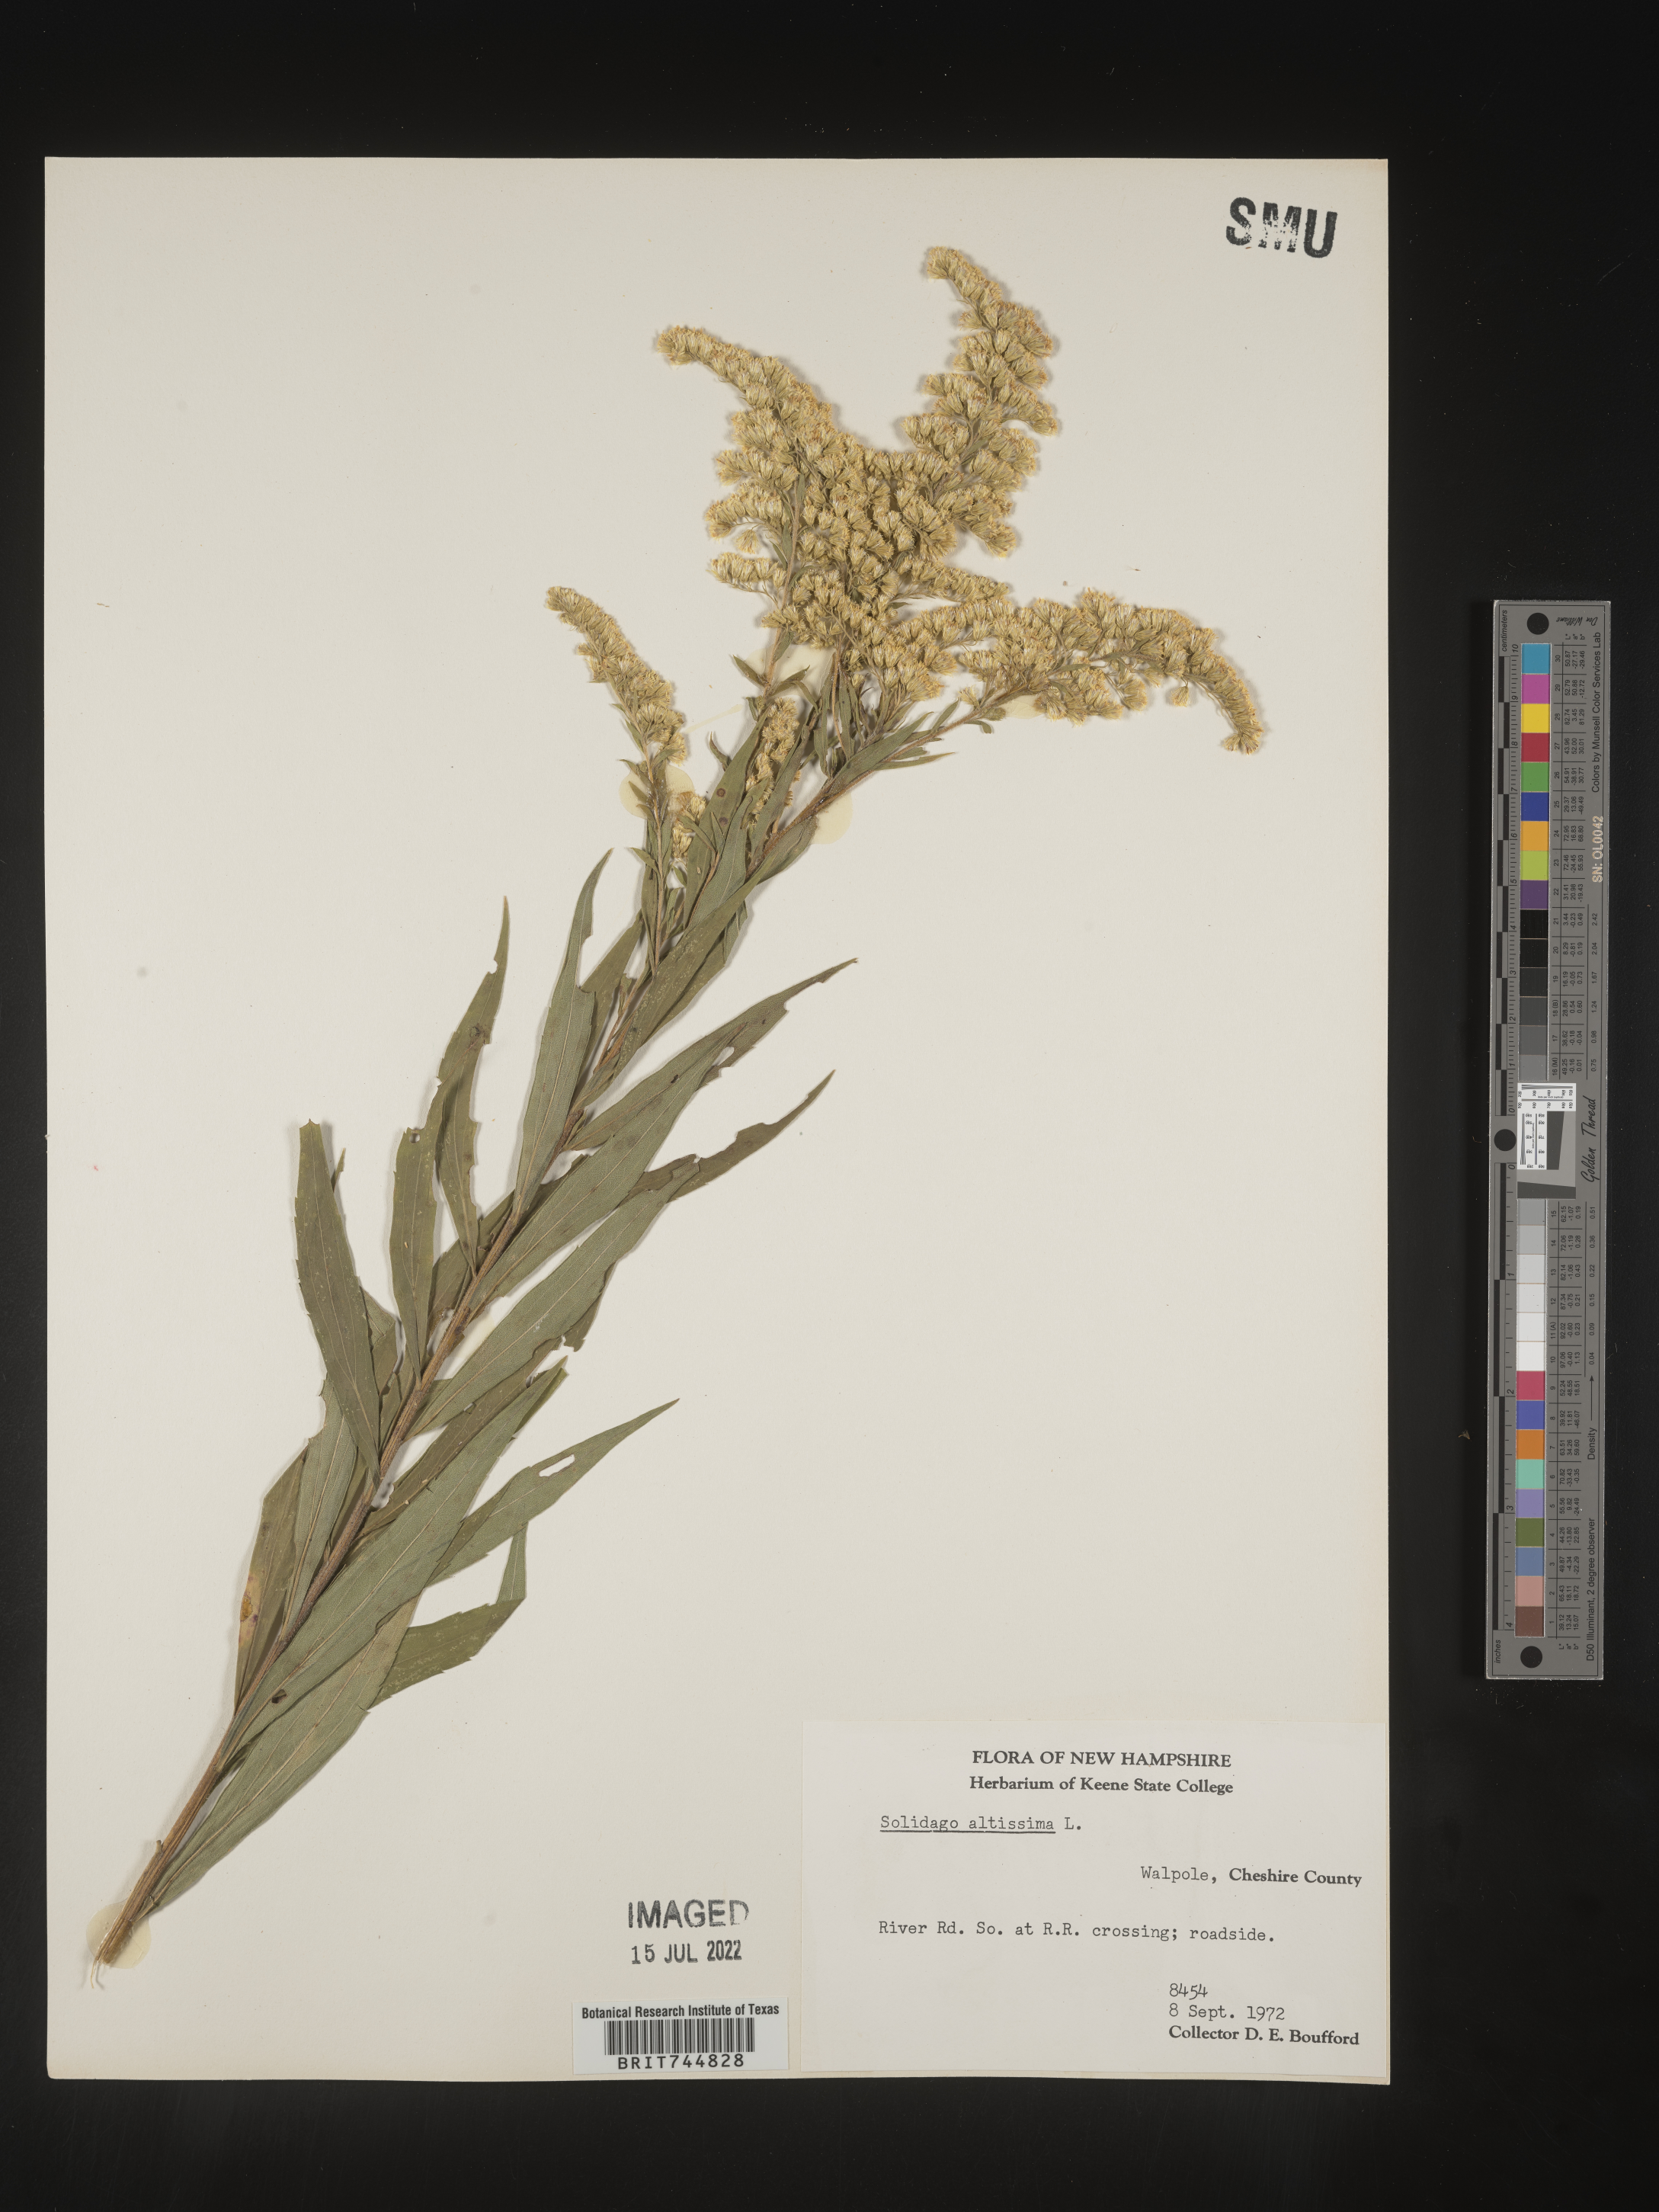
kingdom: Plantae
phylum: Tracheophyta
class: Magnoliopsida
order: Asterales
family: Asteraceae
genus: Solidago
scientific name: Solidago altissima
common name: Late goldenrod
